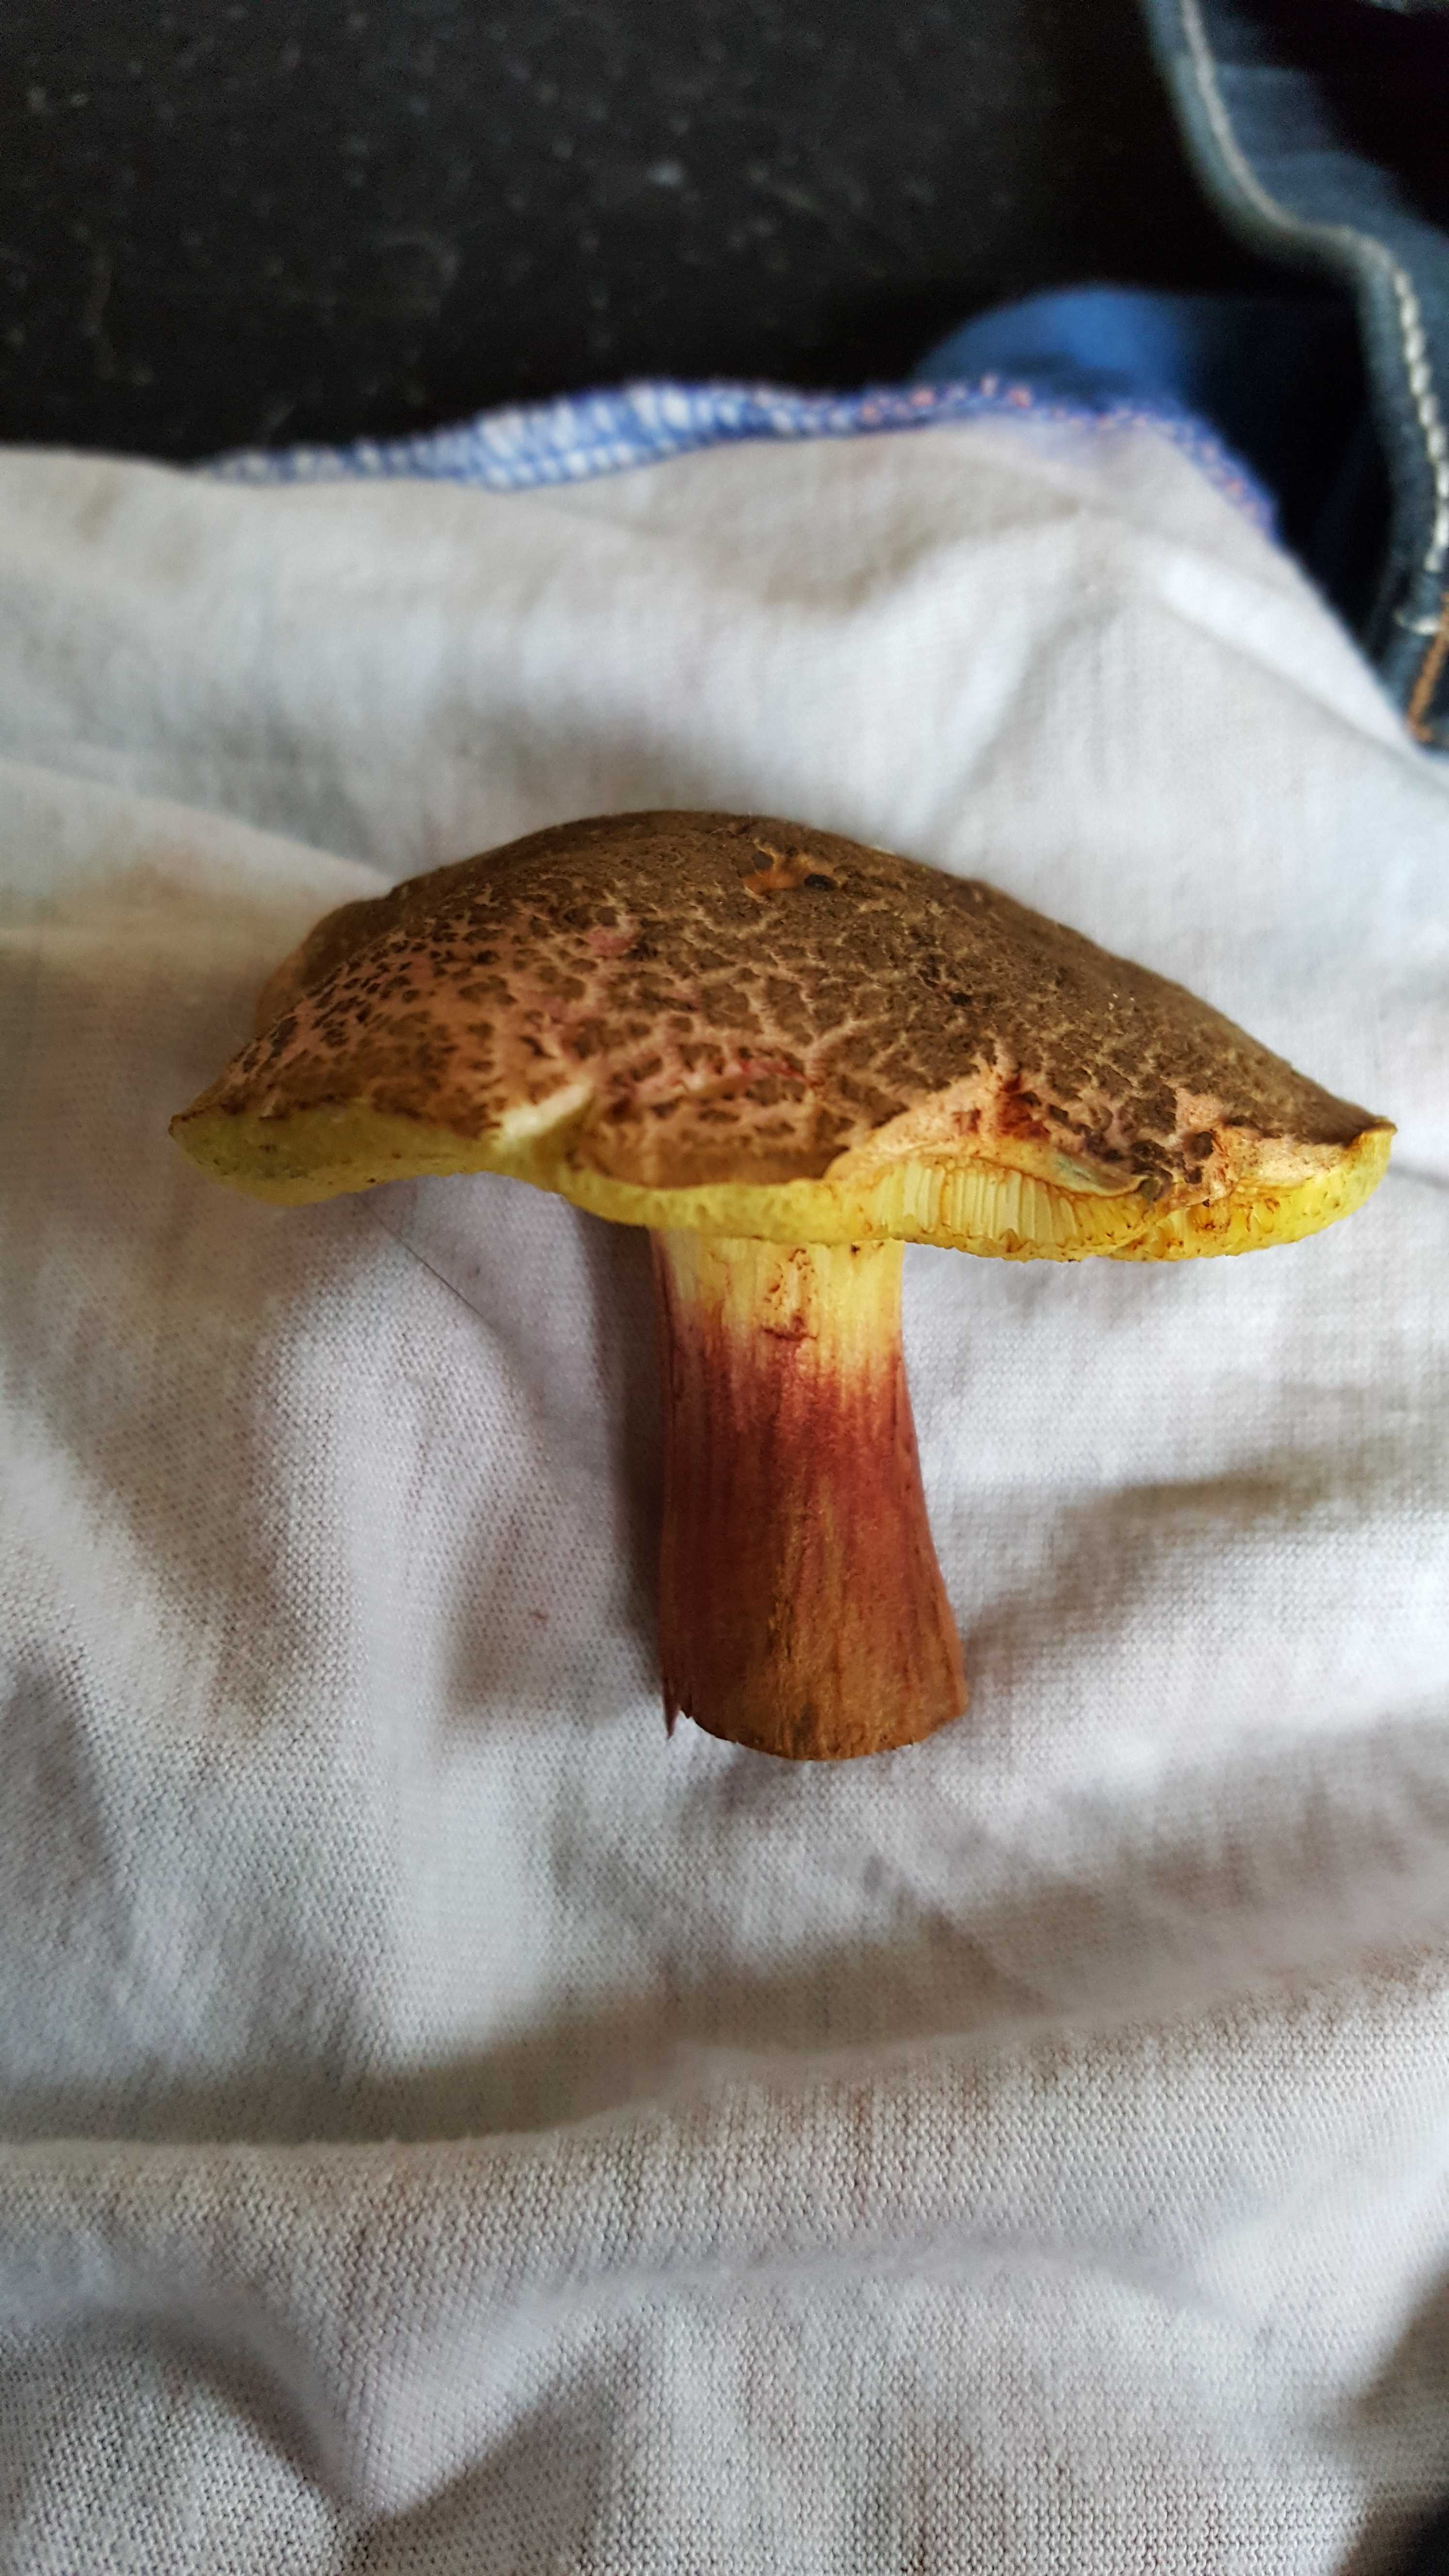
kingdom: Fungi
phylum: Basidiomycota
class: Agaricomycetes
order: Boletales
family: Boletaceae
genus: Xerocomellus
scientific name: Xerocomellus
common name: dværgrørhat
